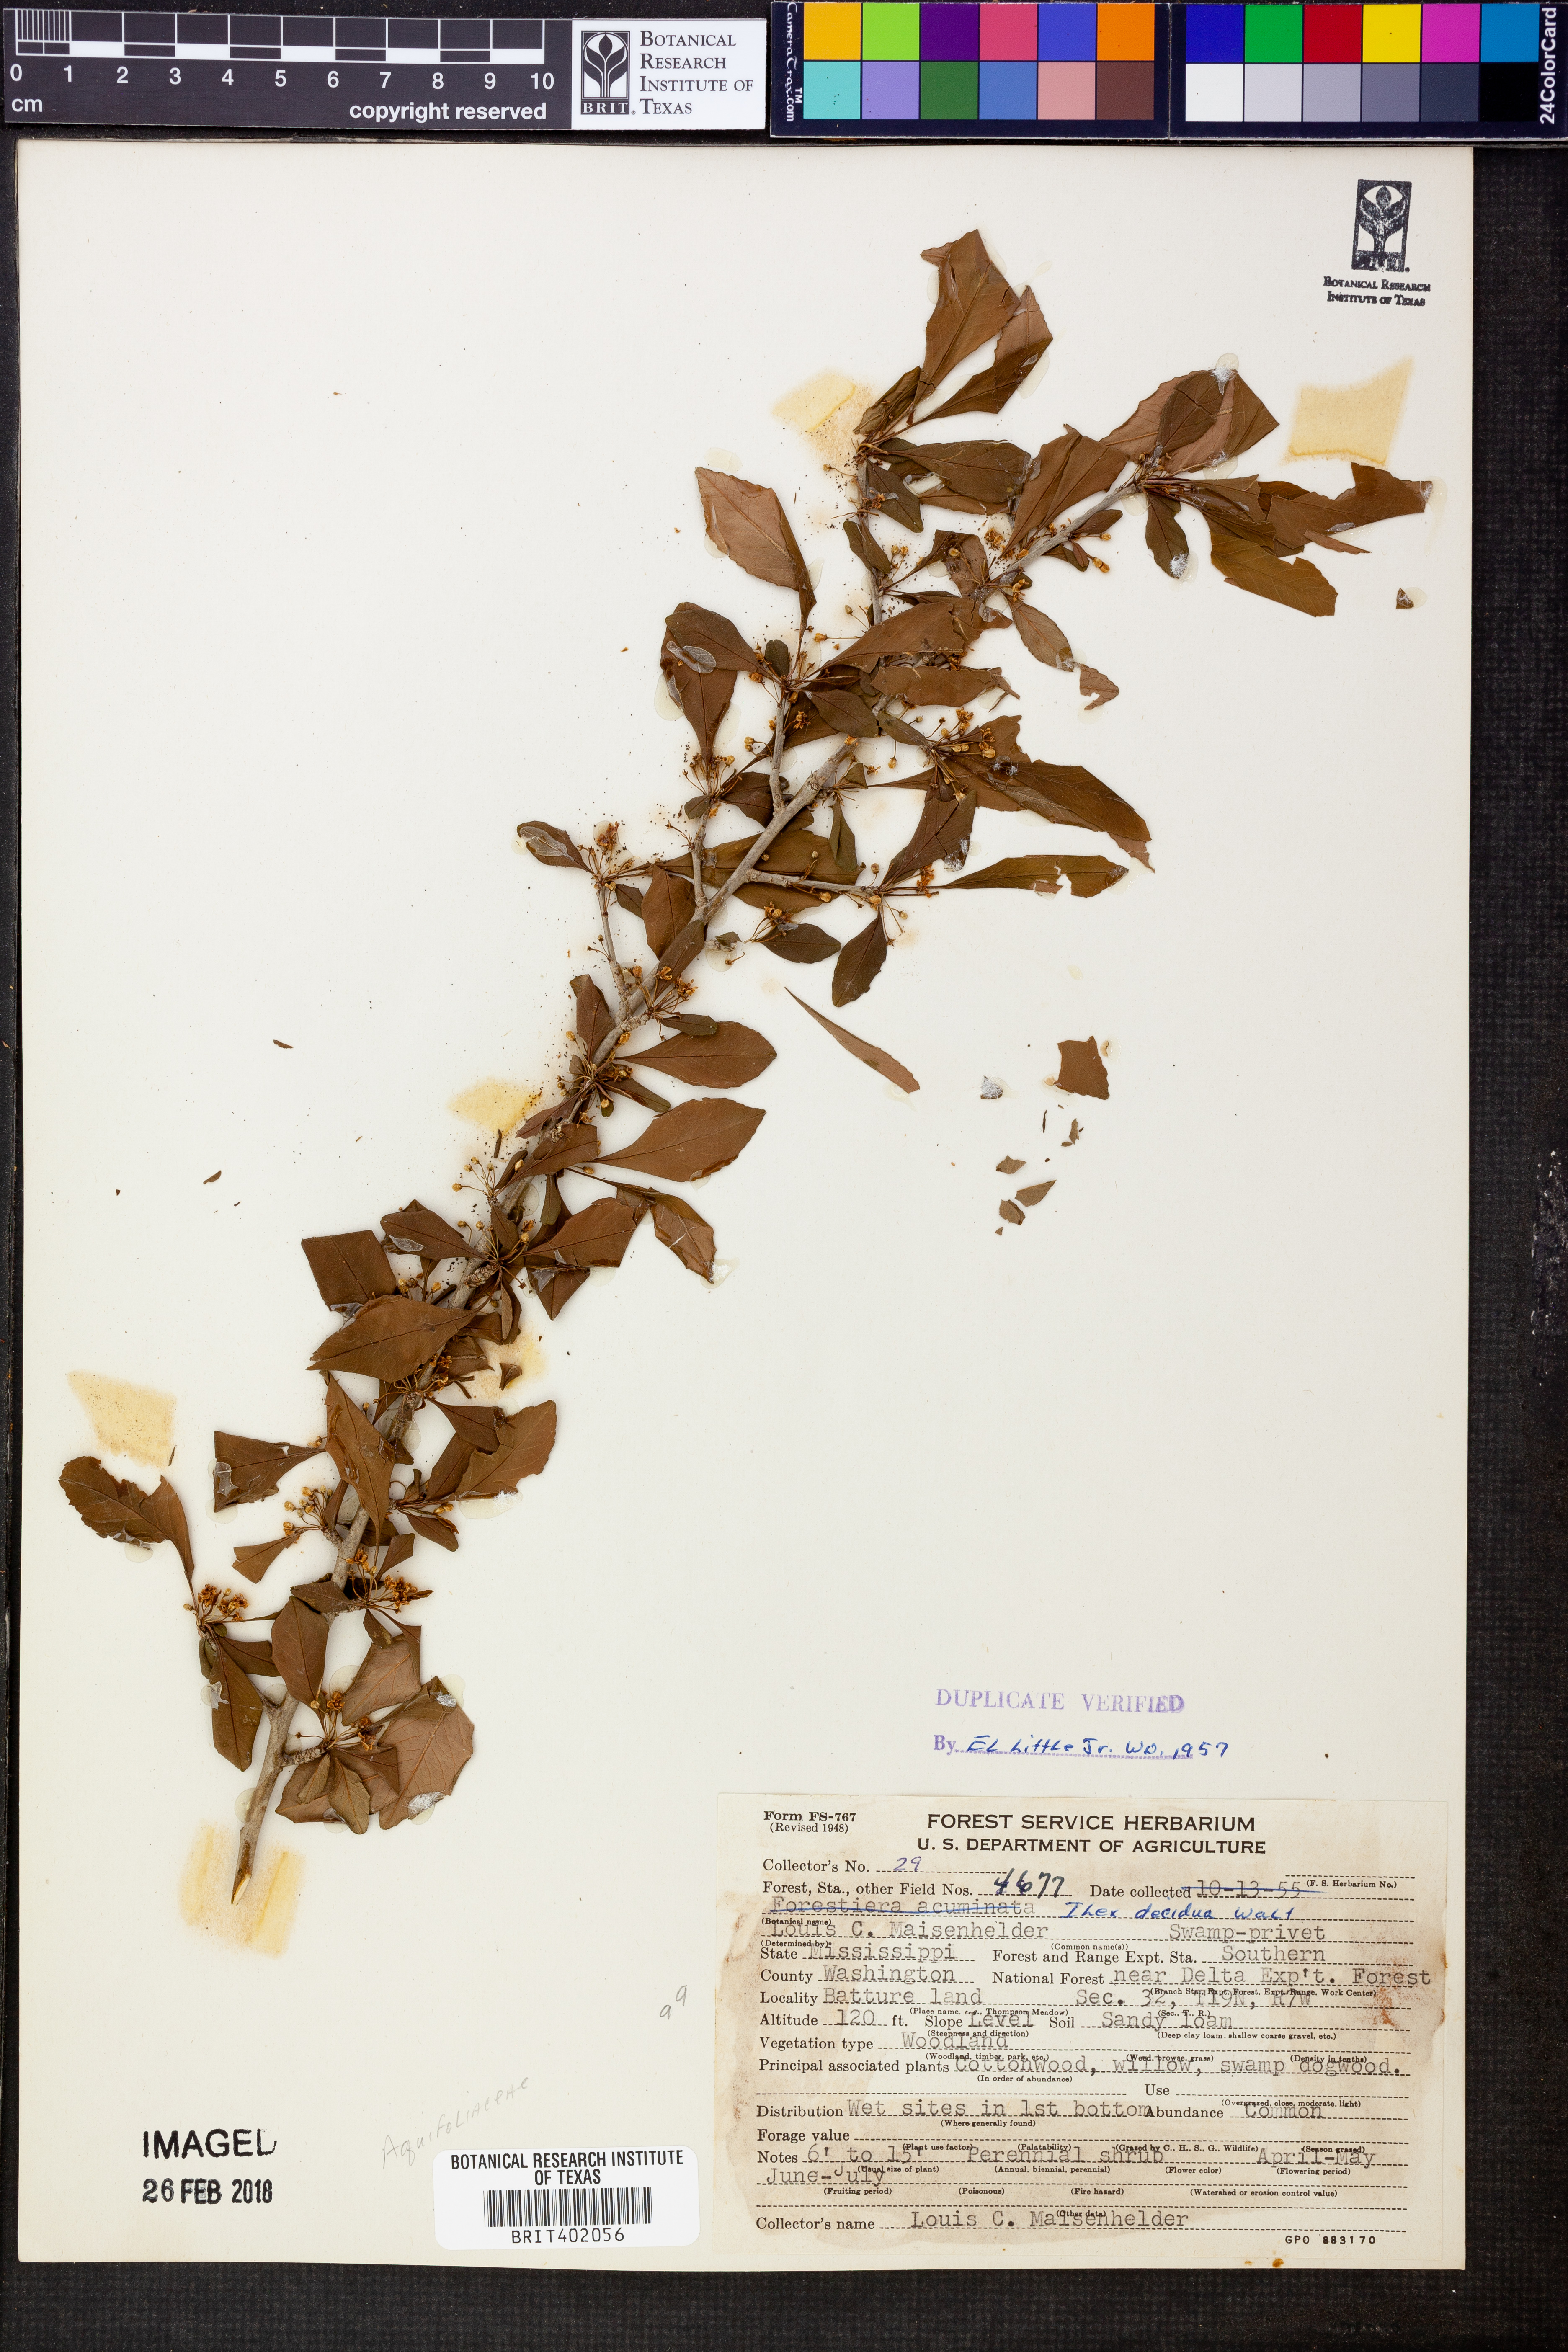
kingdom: Plantae
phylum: Tracheophyta
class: Magnoliopsida
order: Aquifoliales
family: Aquifoliaceae
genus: Ilex
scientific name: Ilex decidua
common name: Possum-haw
